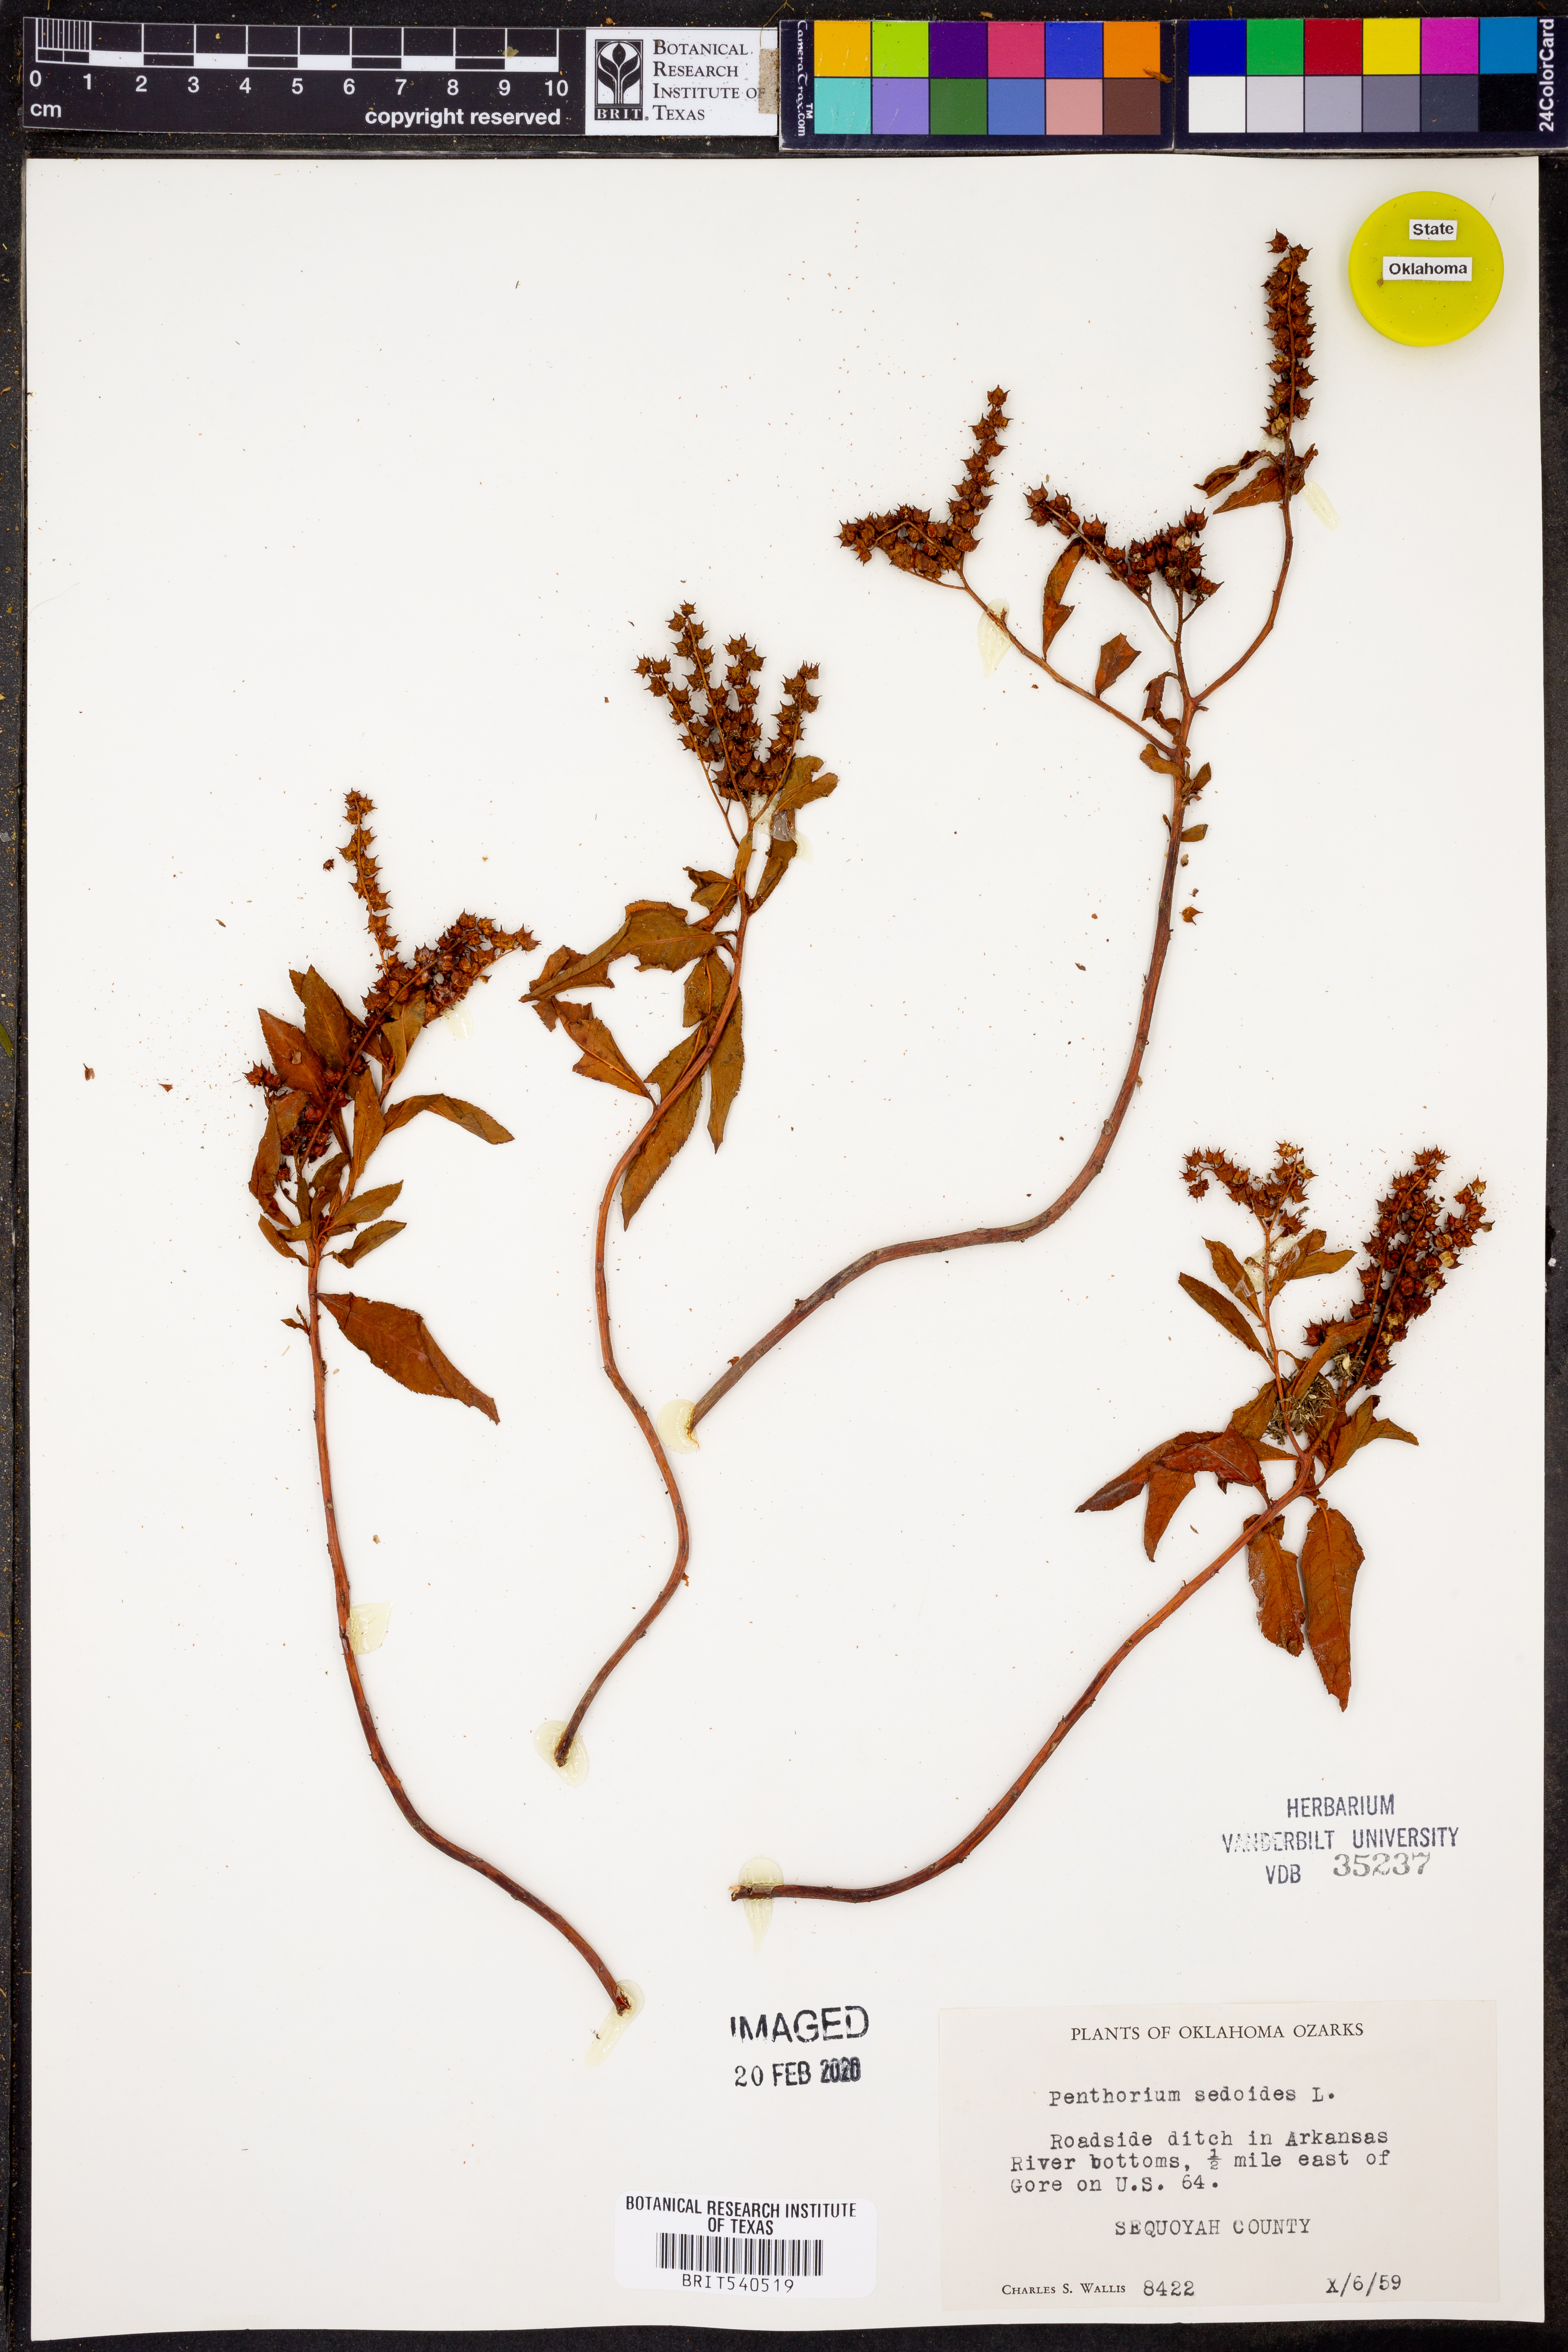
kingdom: Plantae
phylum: Tracheophyta
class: Magnoliopsida
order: Saxifragales
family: Penthoraceae
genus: Penthorum
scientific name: Penthorum sedoides
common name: Ditch stonecrop
